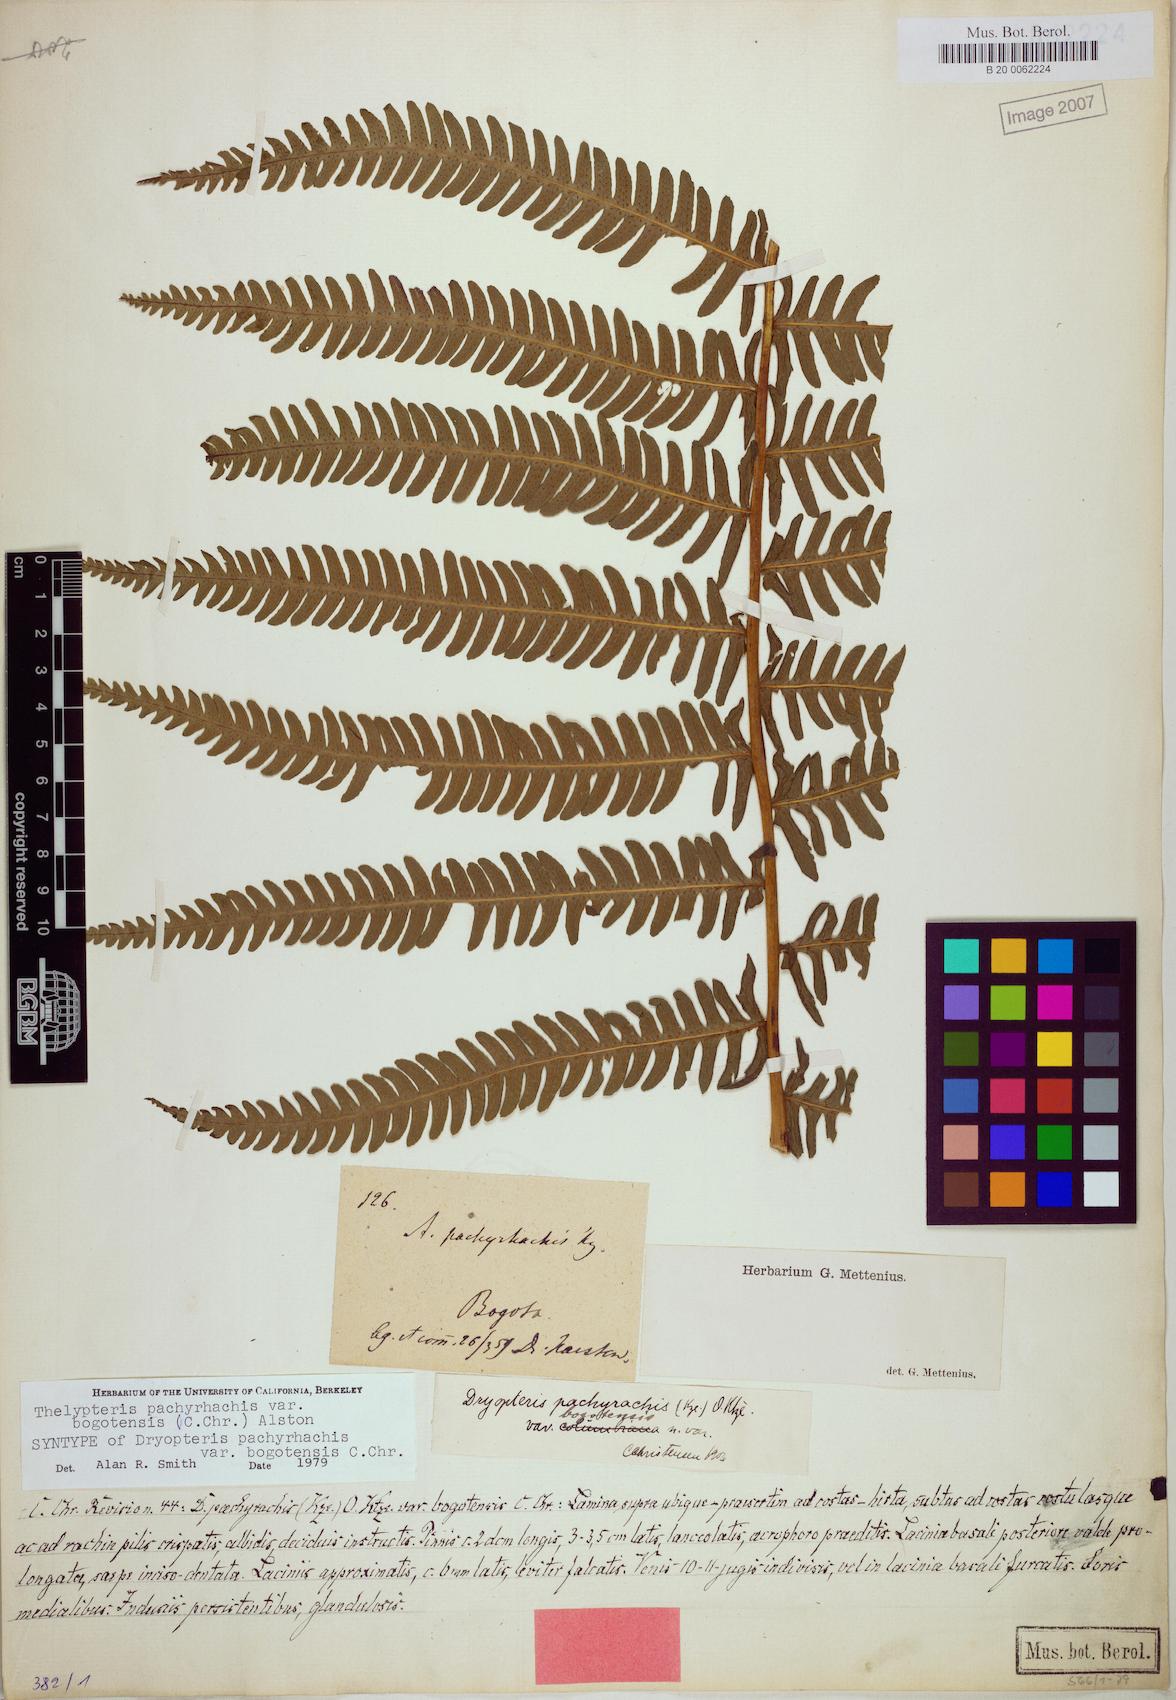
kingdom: Plantae
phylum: Tracheophyta
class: Polypodiopsida
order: Polypodiales
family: Thelypteridaceae
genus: Amauropelta
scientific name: Amauropelta pachyrhachis
